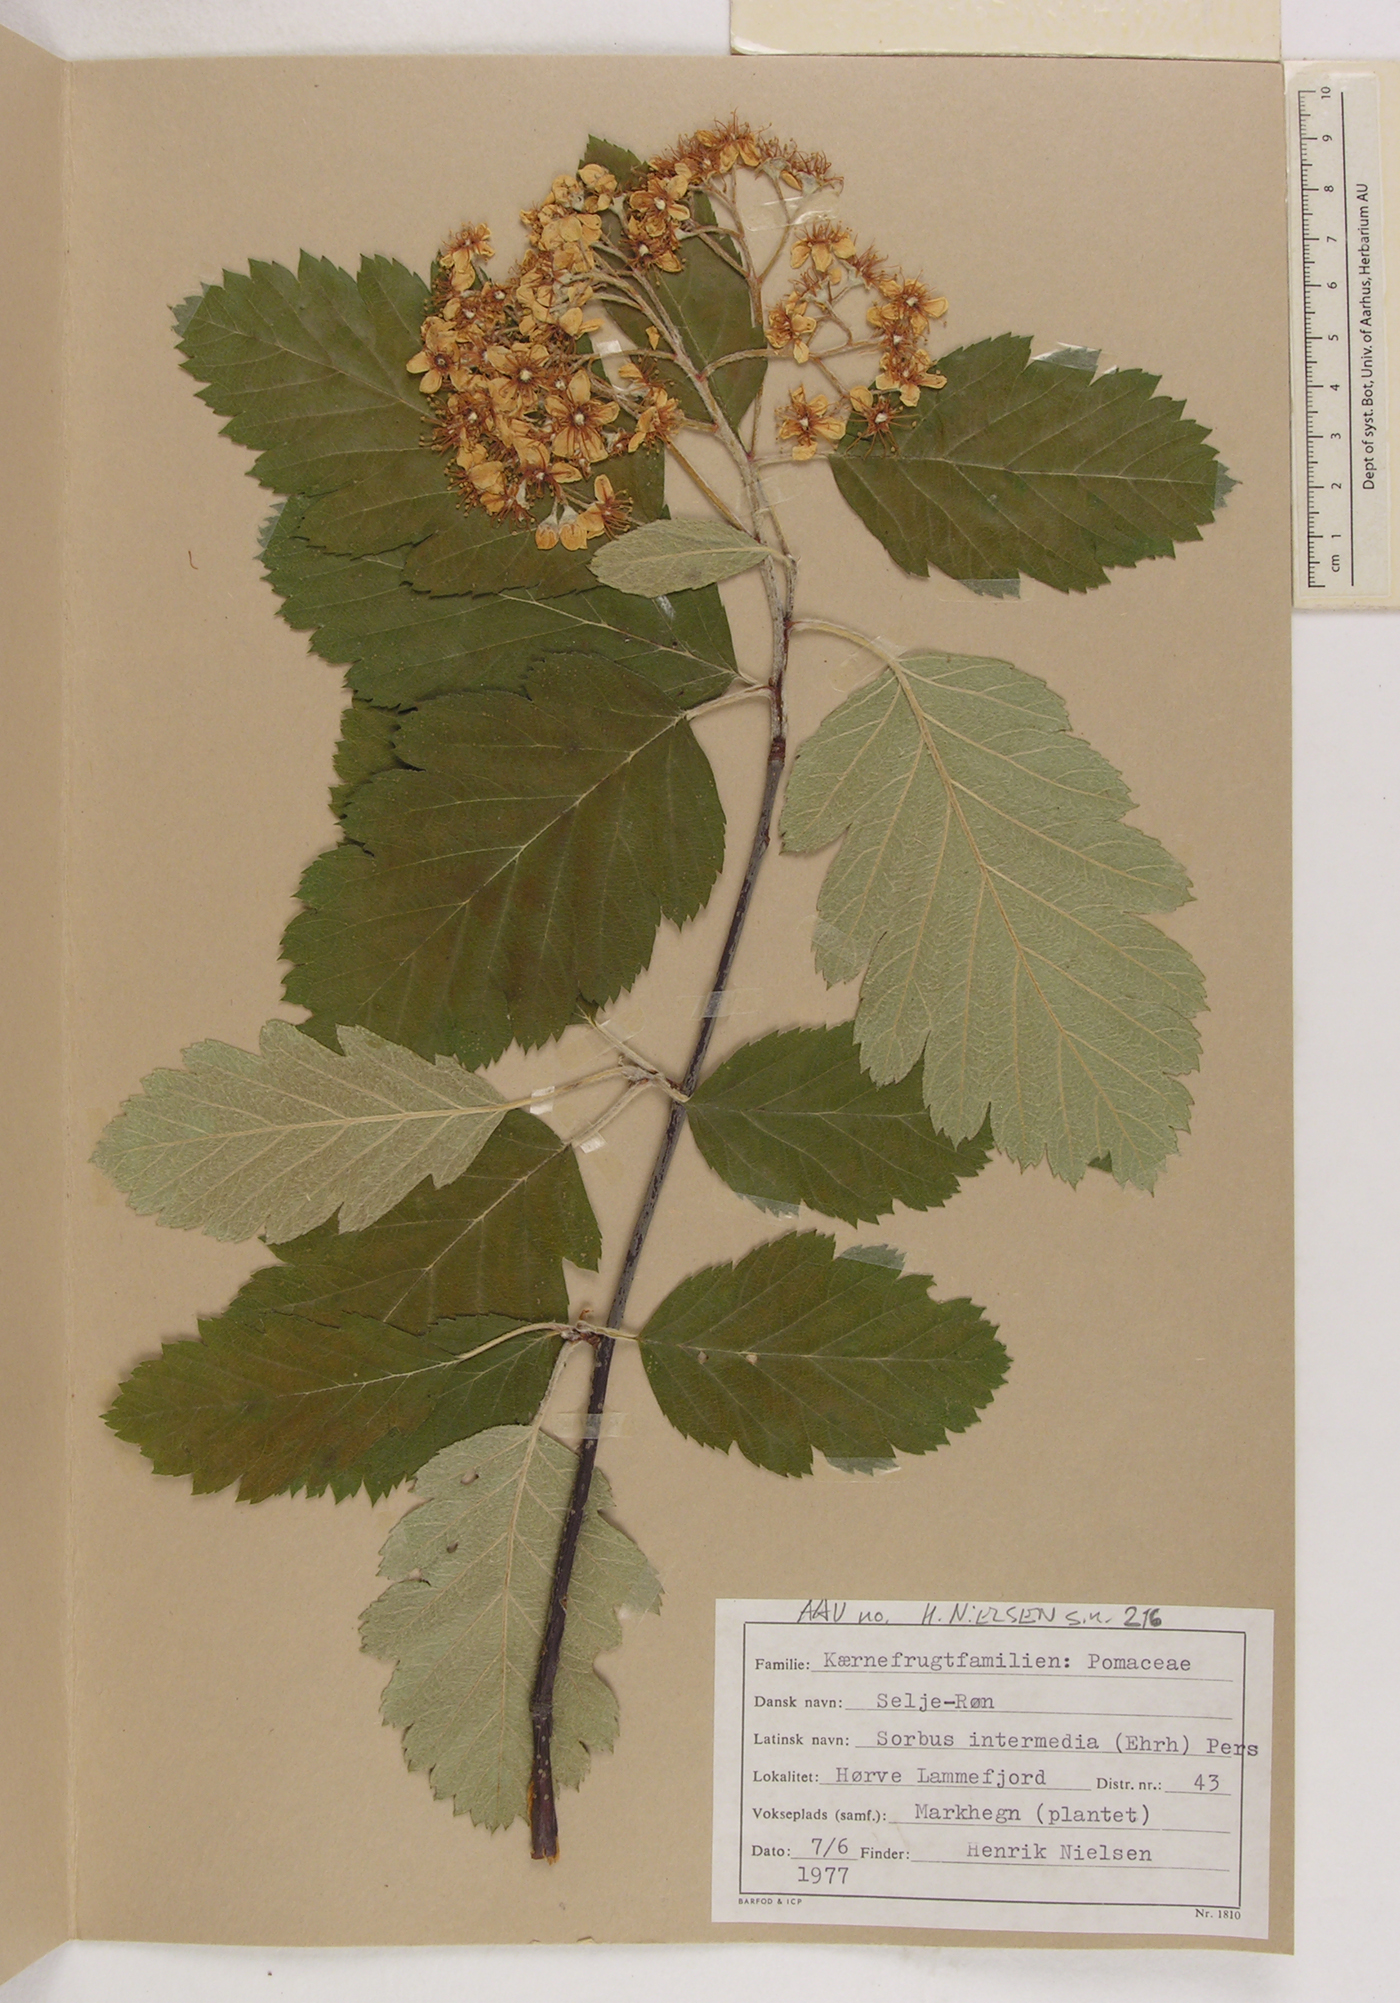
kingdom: Plantae
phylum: Tracheophyta
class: Magnoliopsida
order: Rosales
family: Rosaceae
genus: Scandosorbus
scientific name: Scandosorbus intermedia
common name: Swedish whitebeam
